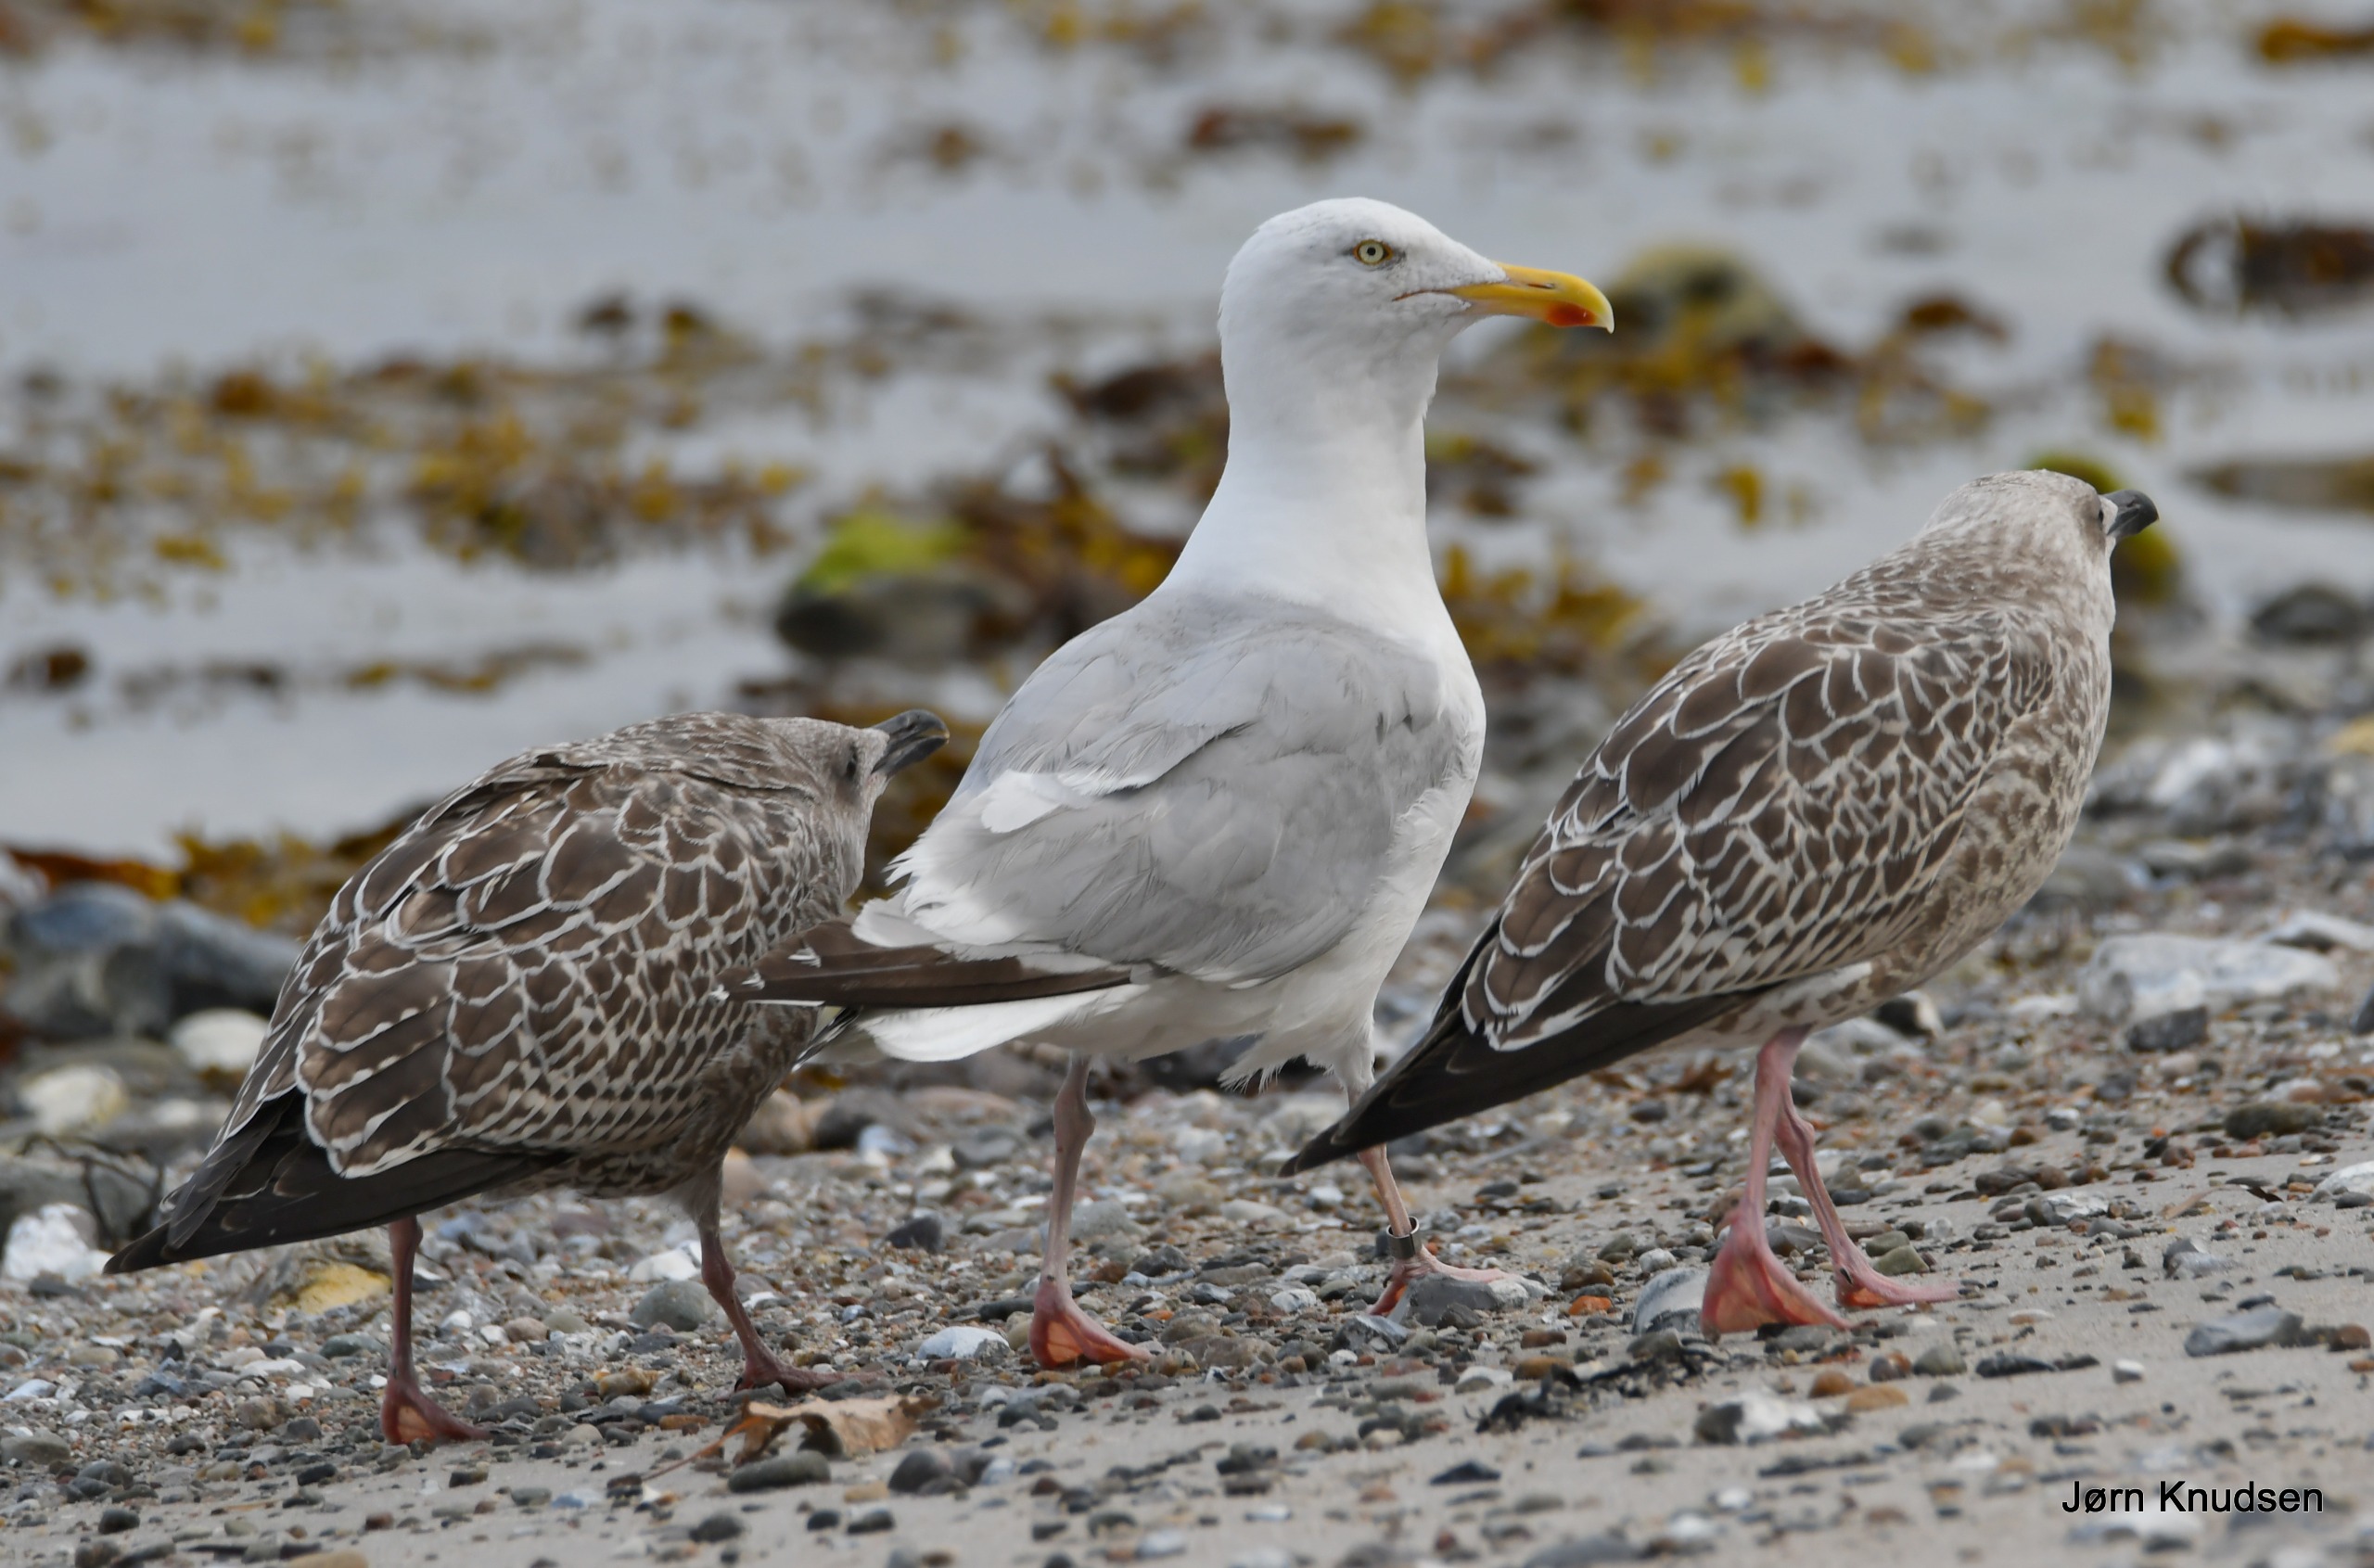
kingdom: Animalia
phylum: Chordata
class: Aves
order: Charadriiformes
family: Laridae
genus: Larus
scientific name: Larus argentatus
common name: Sølvmåge
